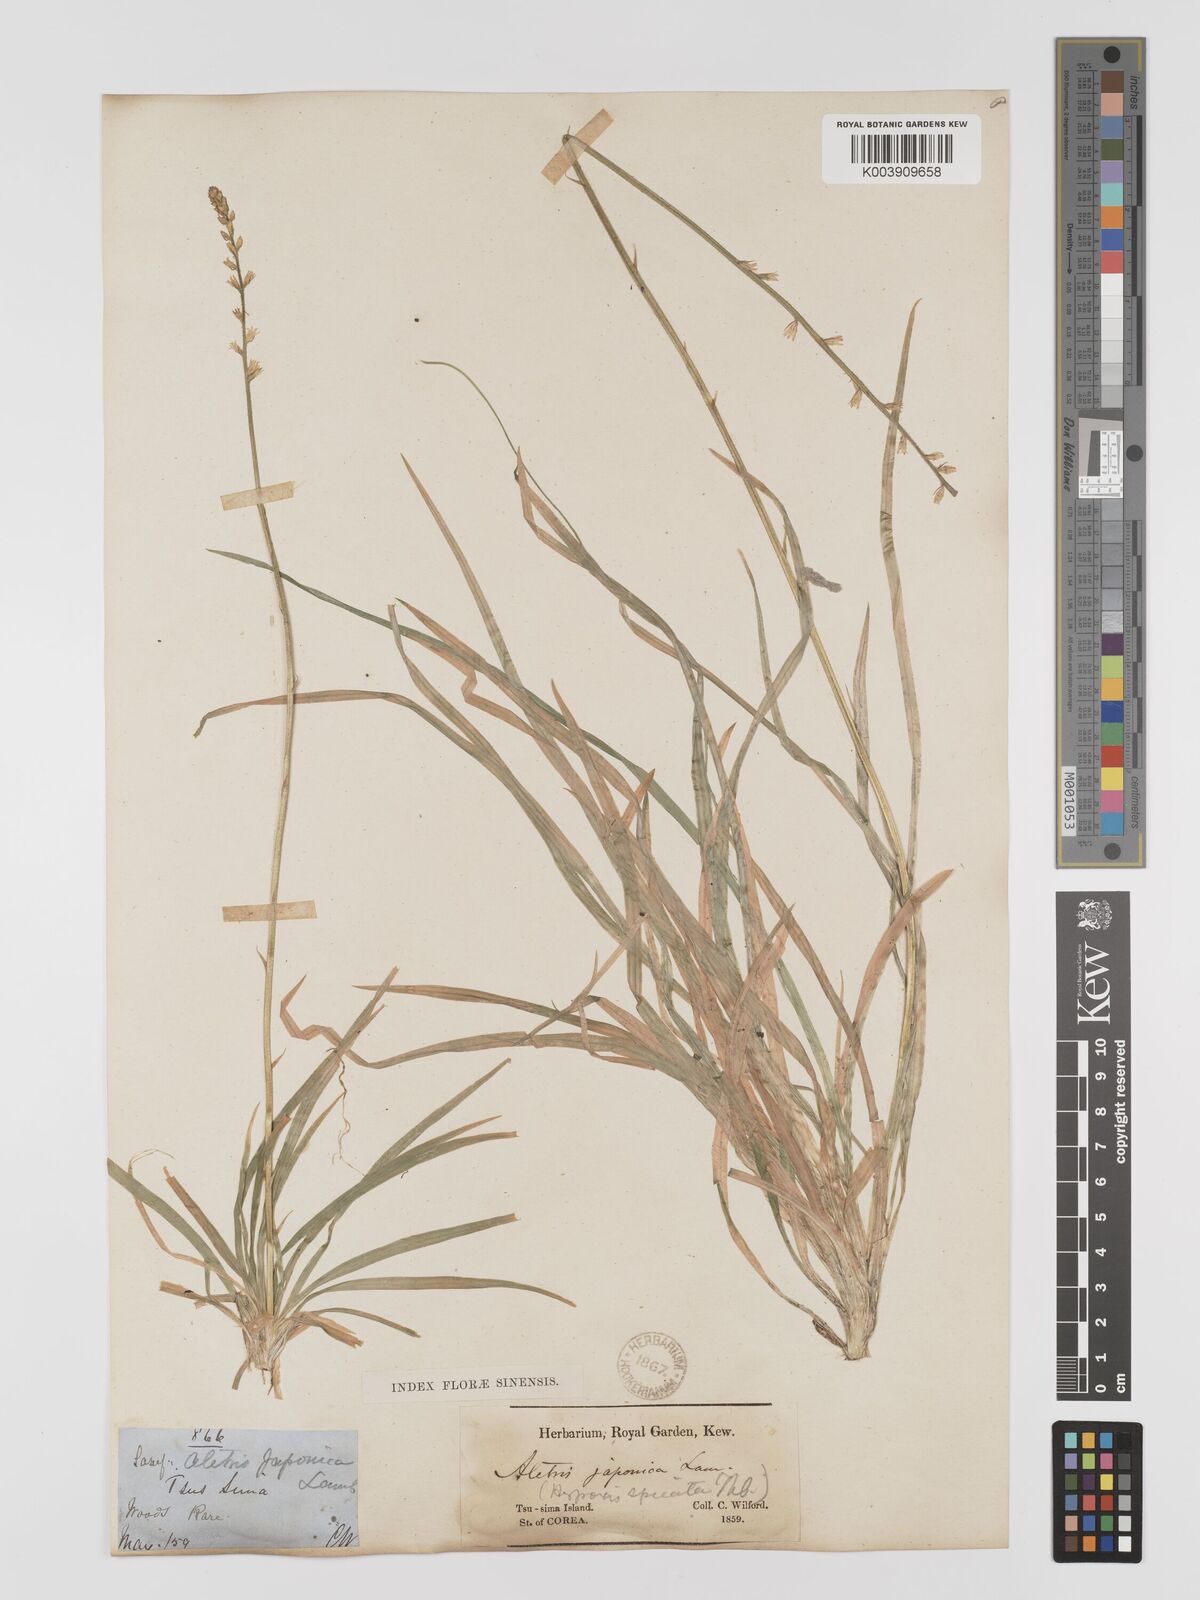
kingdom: Plantae
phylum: Tracheophyta
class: Liliopsida
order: Dioscoreales
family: Nartheciaceae
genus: Aletris
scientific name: Aletris spicata
